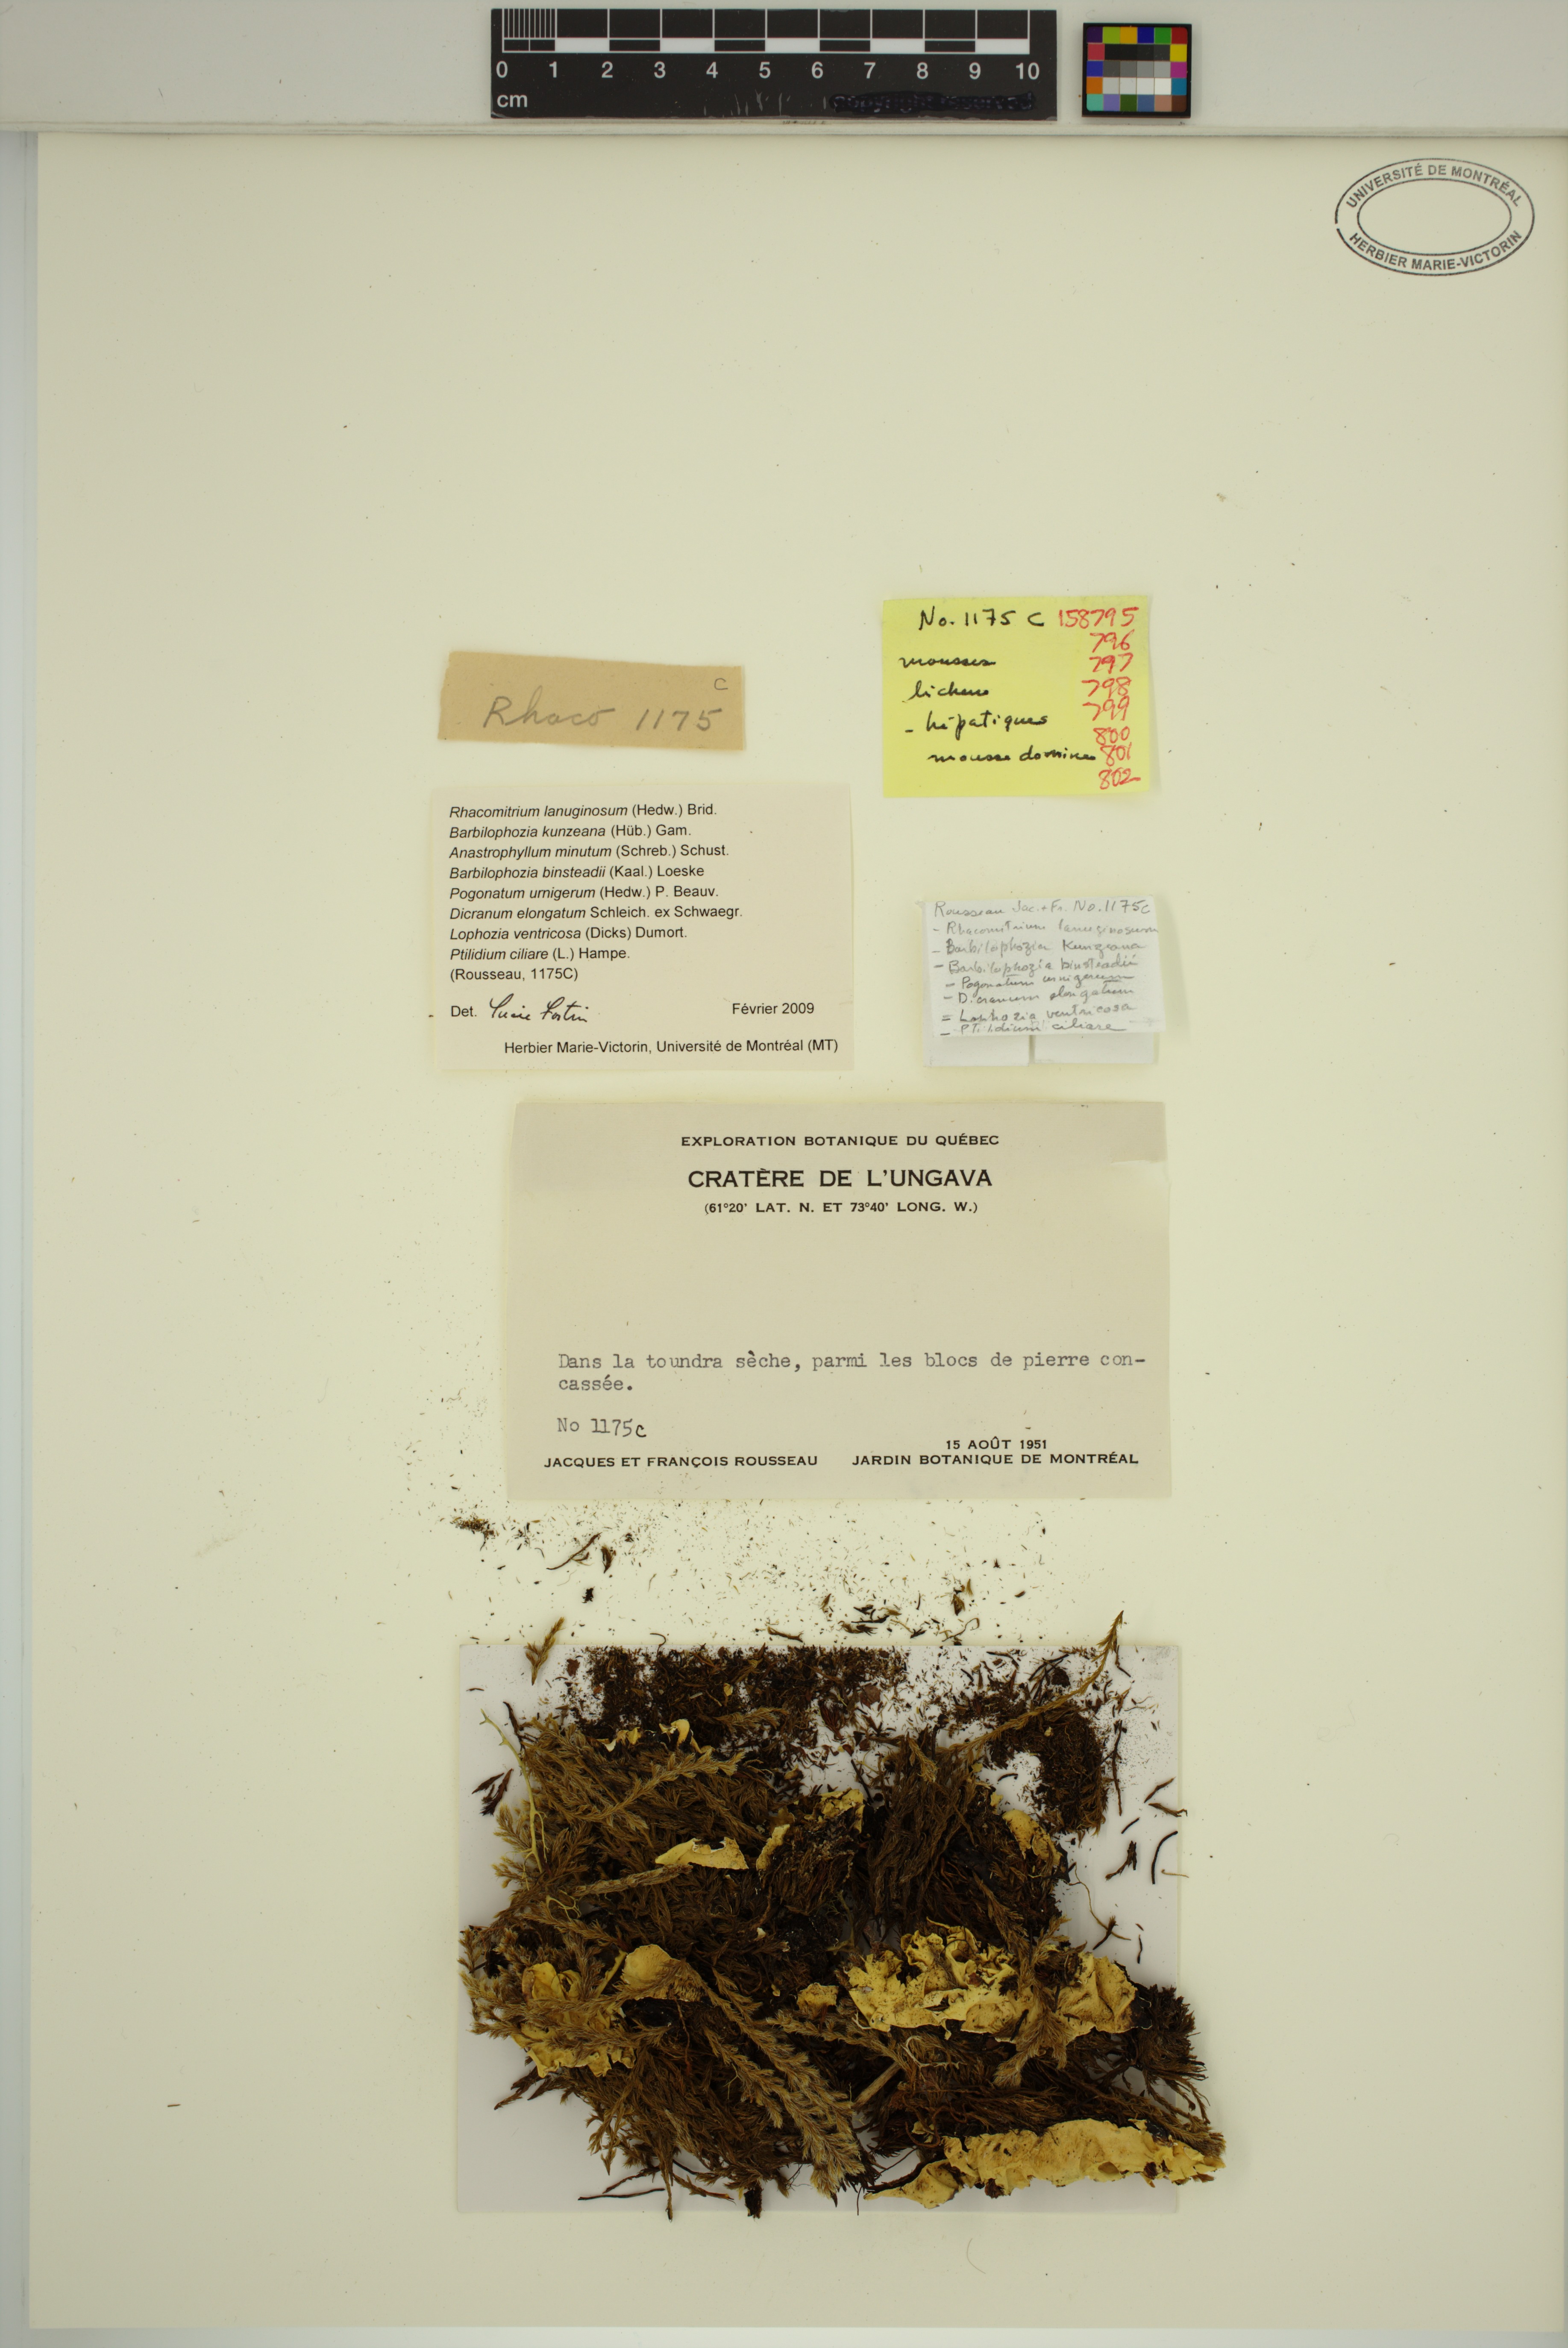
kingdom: Plantae
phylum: Marchantiophyta
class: Jungermanniopsida
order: Jungermanniales
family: Anastrophyllaceae
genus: Sphenolobus
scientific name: Sphenolobus minutus
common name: Comb notchwort
